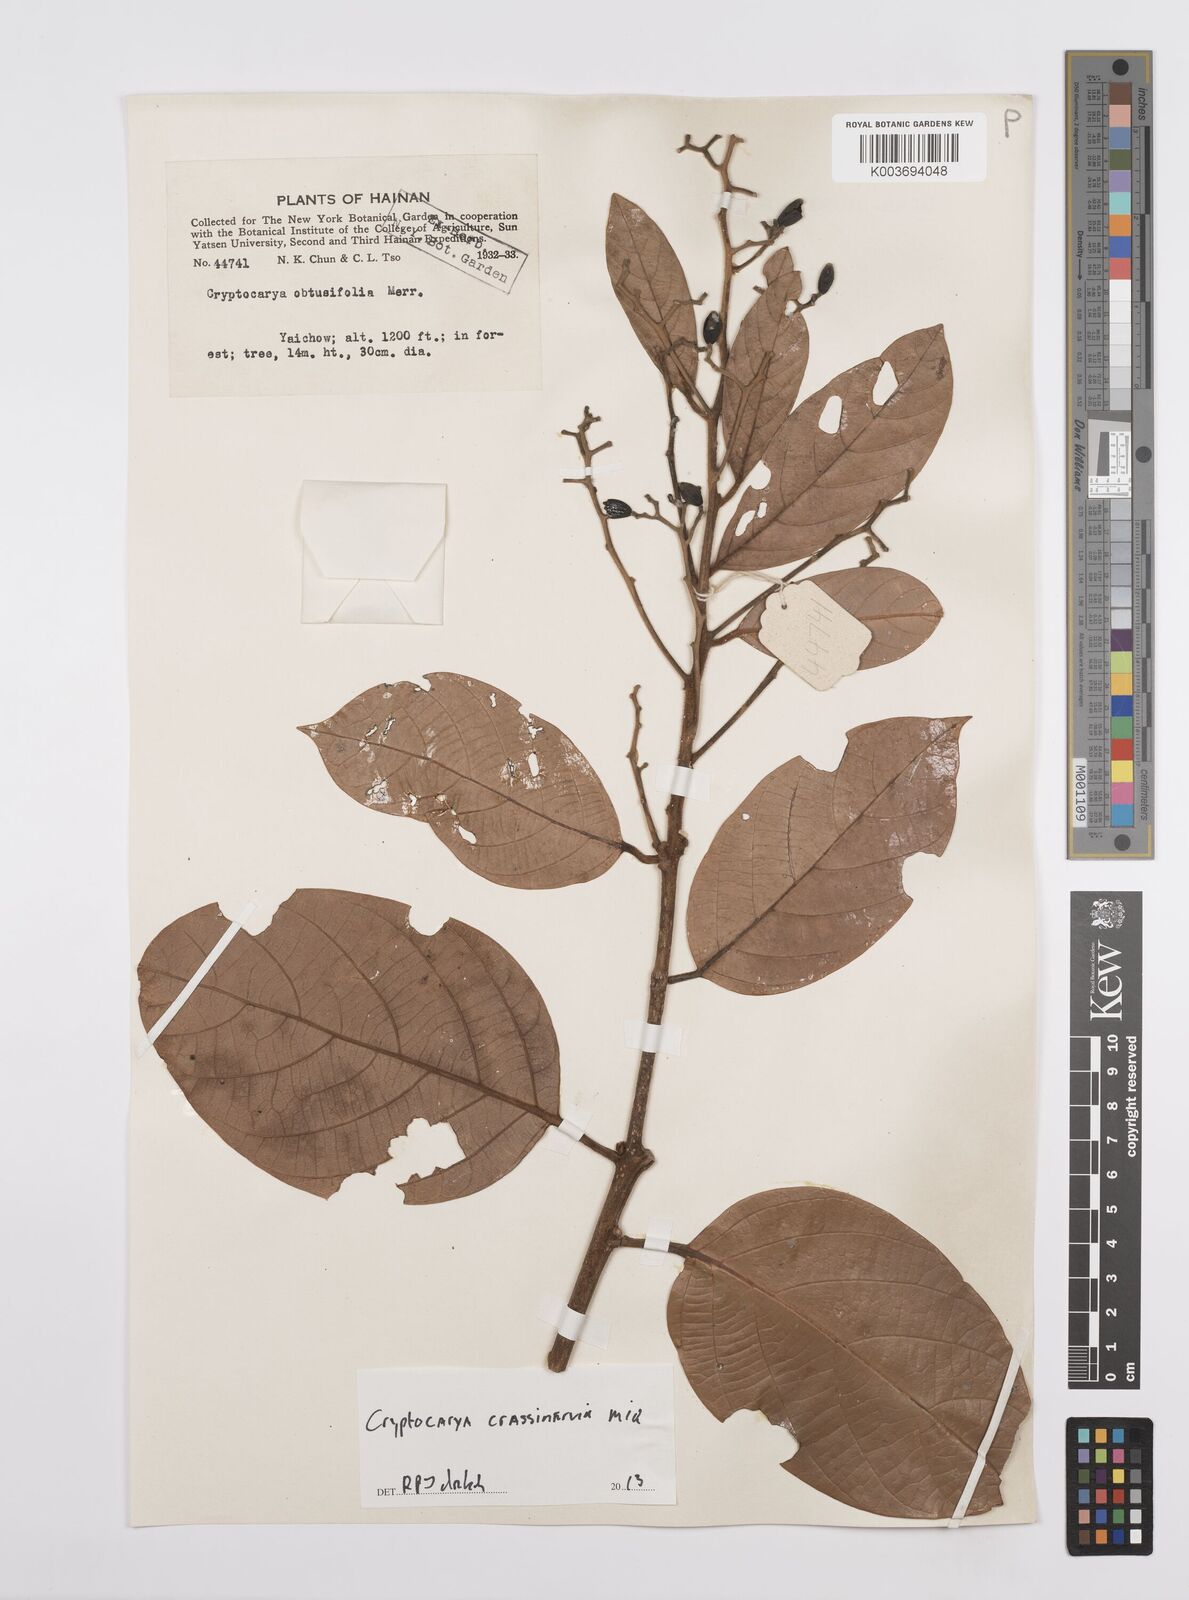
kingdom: Plantae
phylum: Tracheophyta
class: Magnoliopsida
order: Laurales
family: Lauraceae
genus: Cryptocarya
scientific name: Cryptocarya diversifolia
